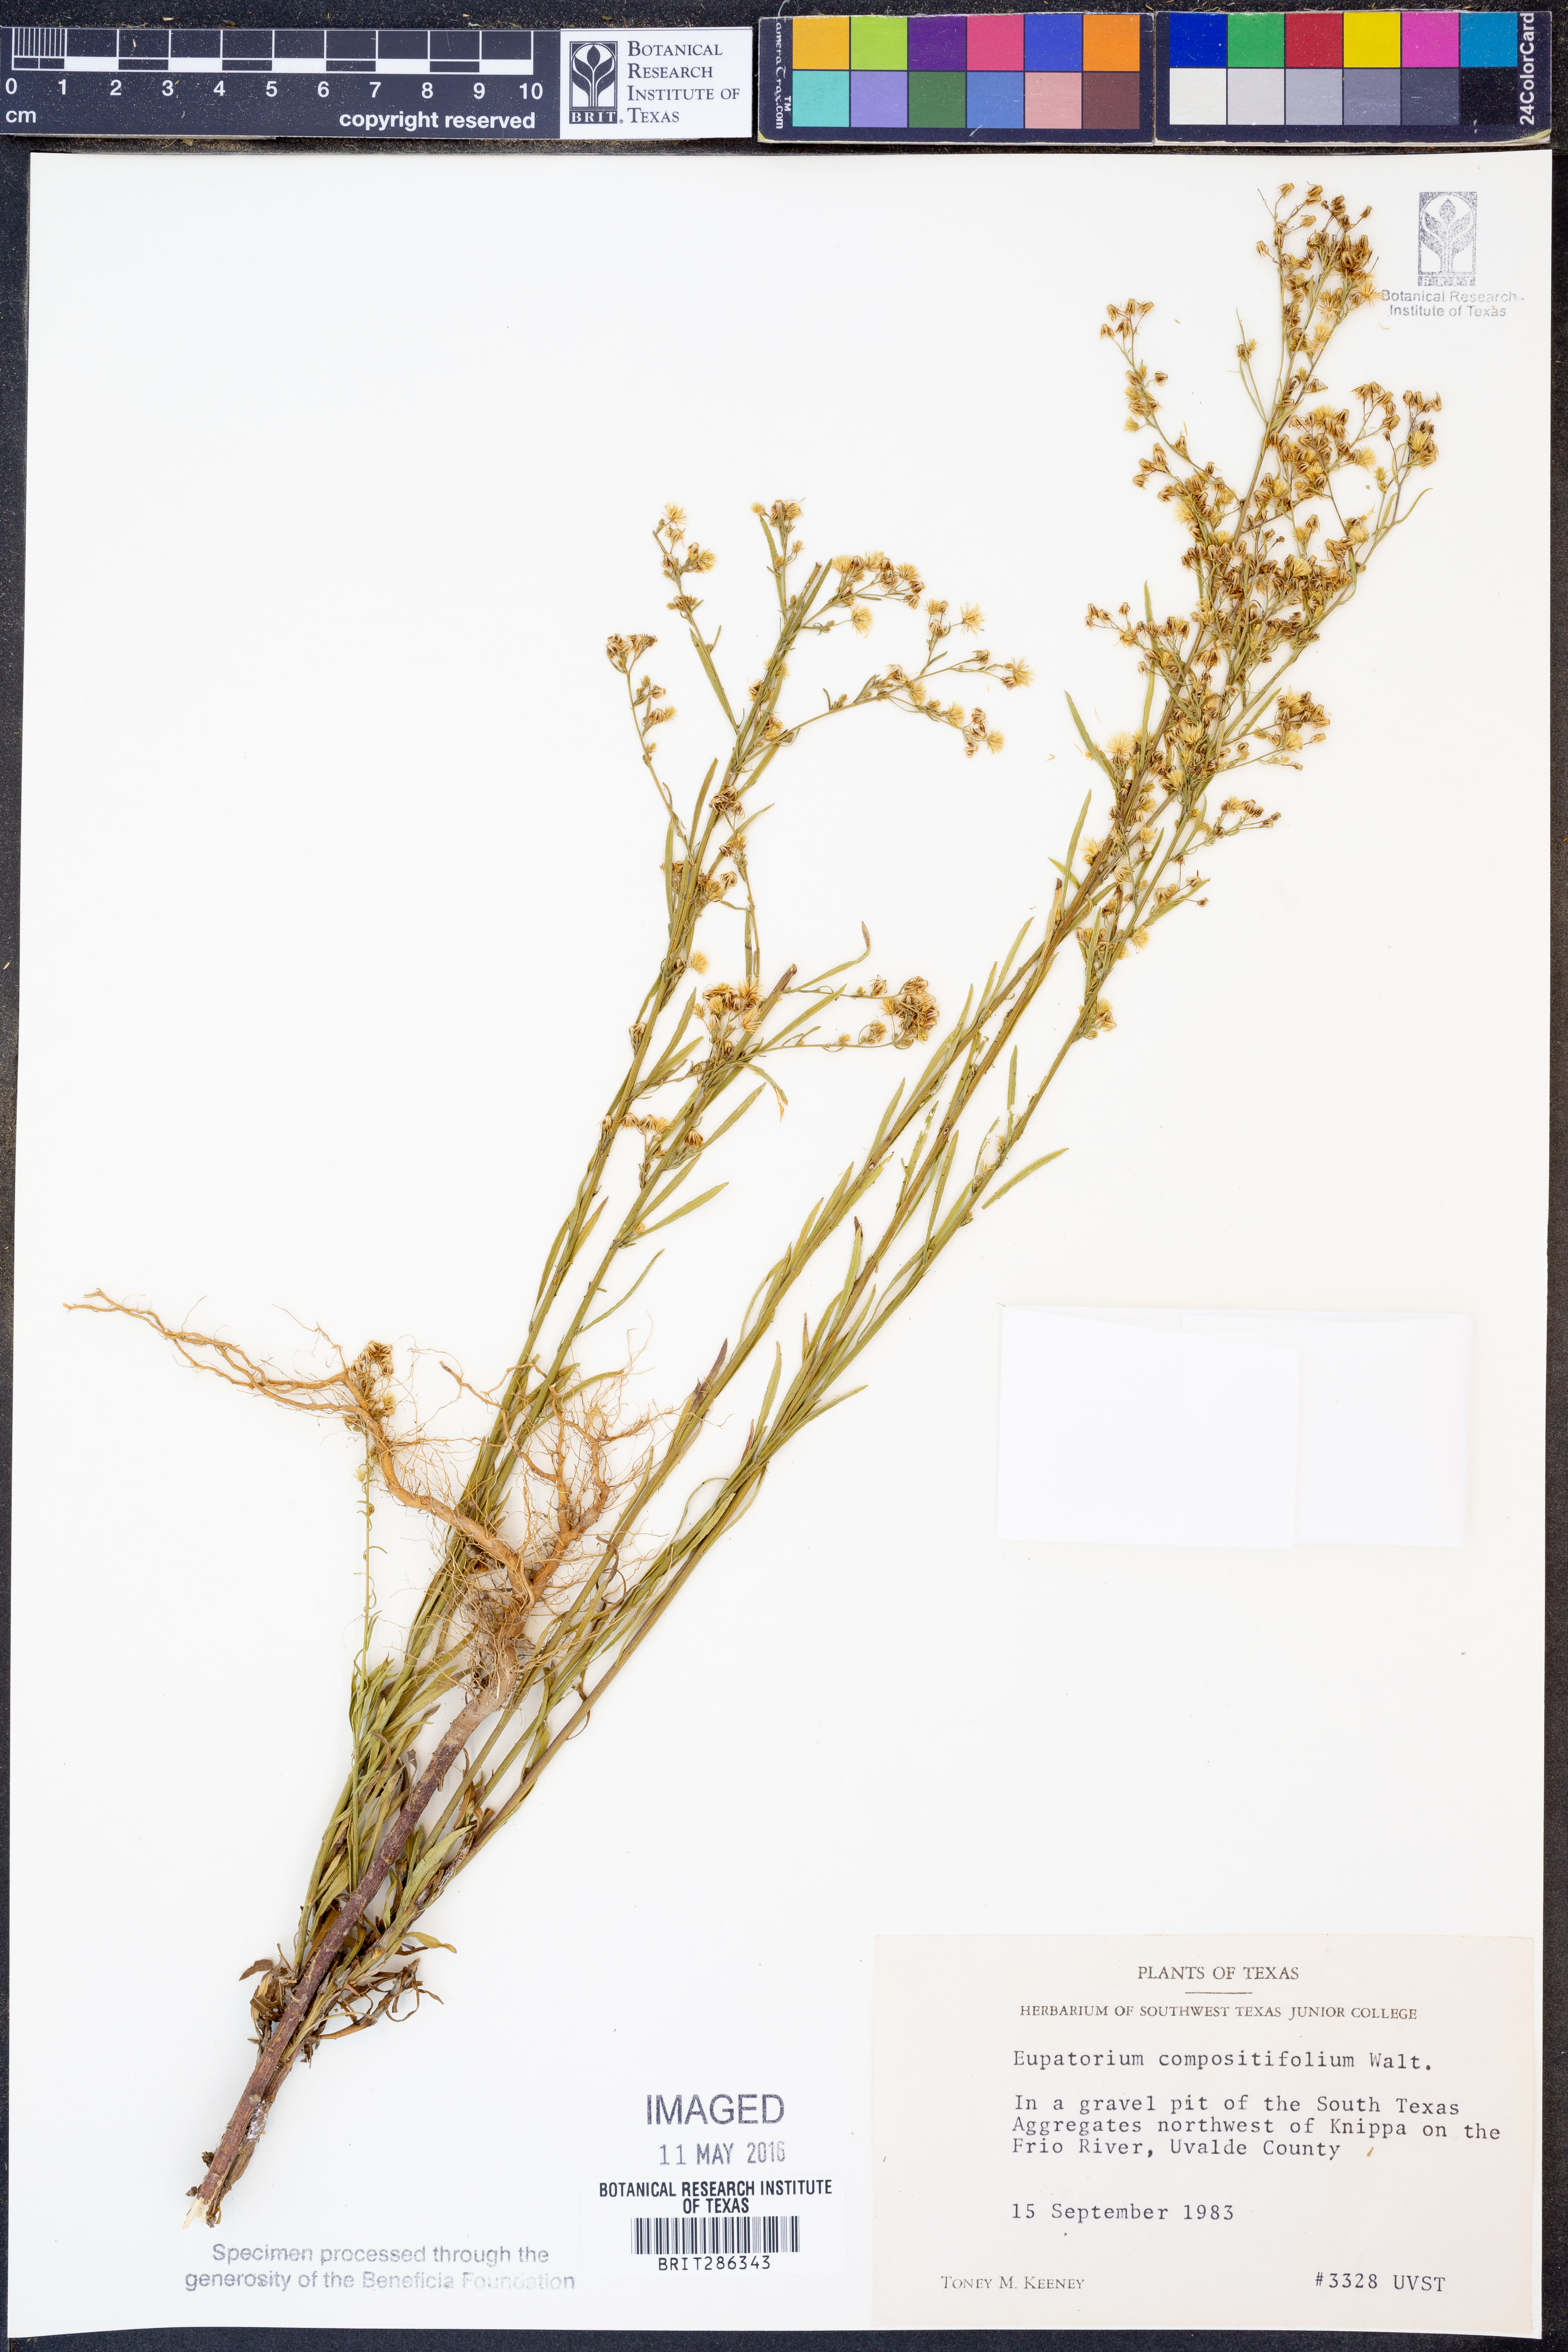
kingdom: Plantae
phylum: Tracheophyta
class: Magnoliopsida
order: Asterales
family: Asteraceae
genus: Eupatorium
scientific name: Eupatorium compositifolium
